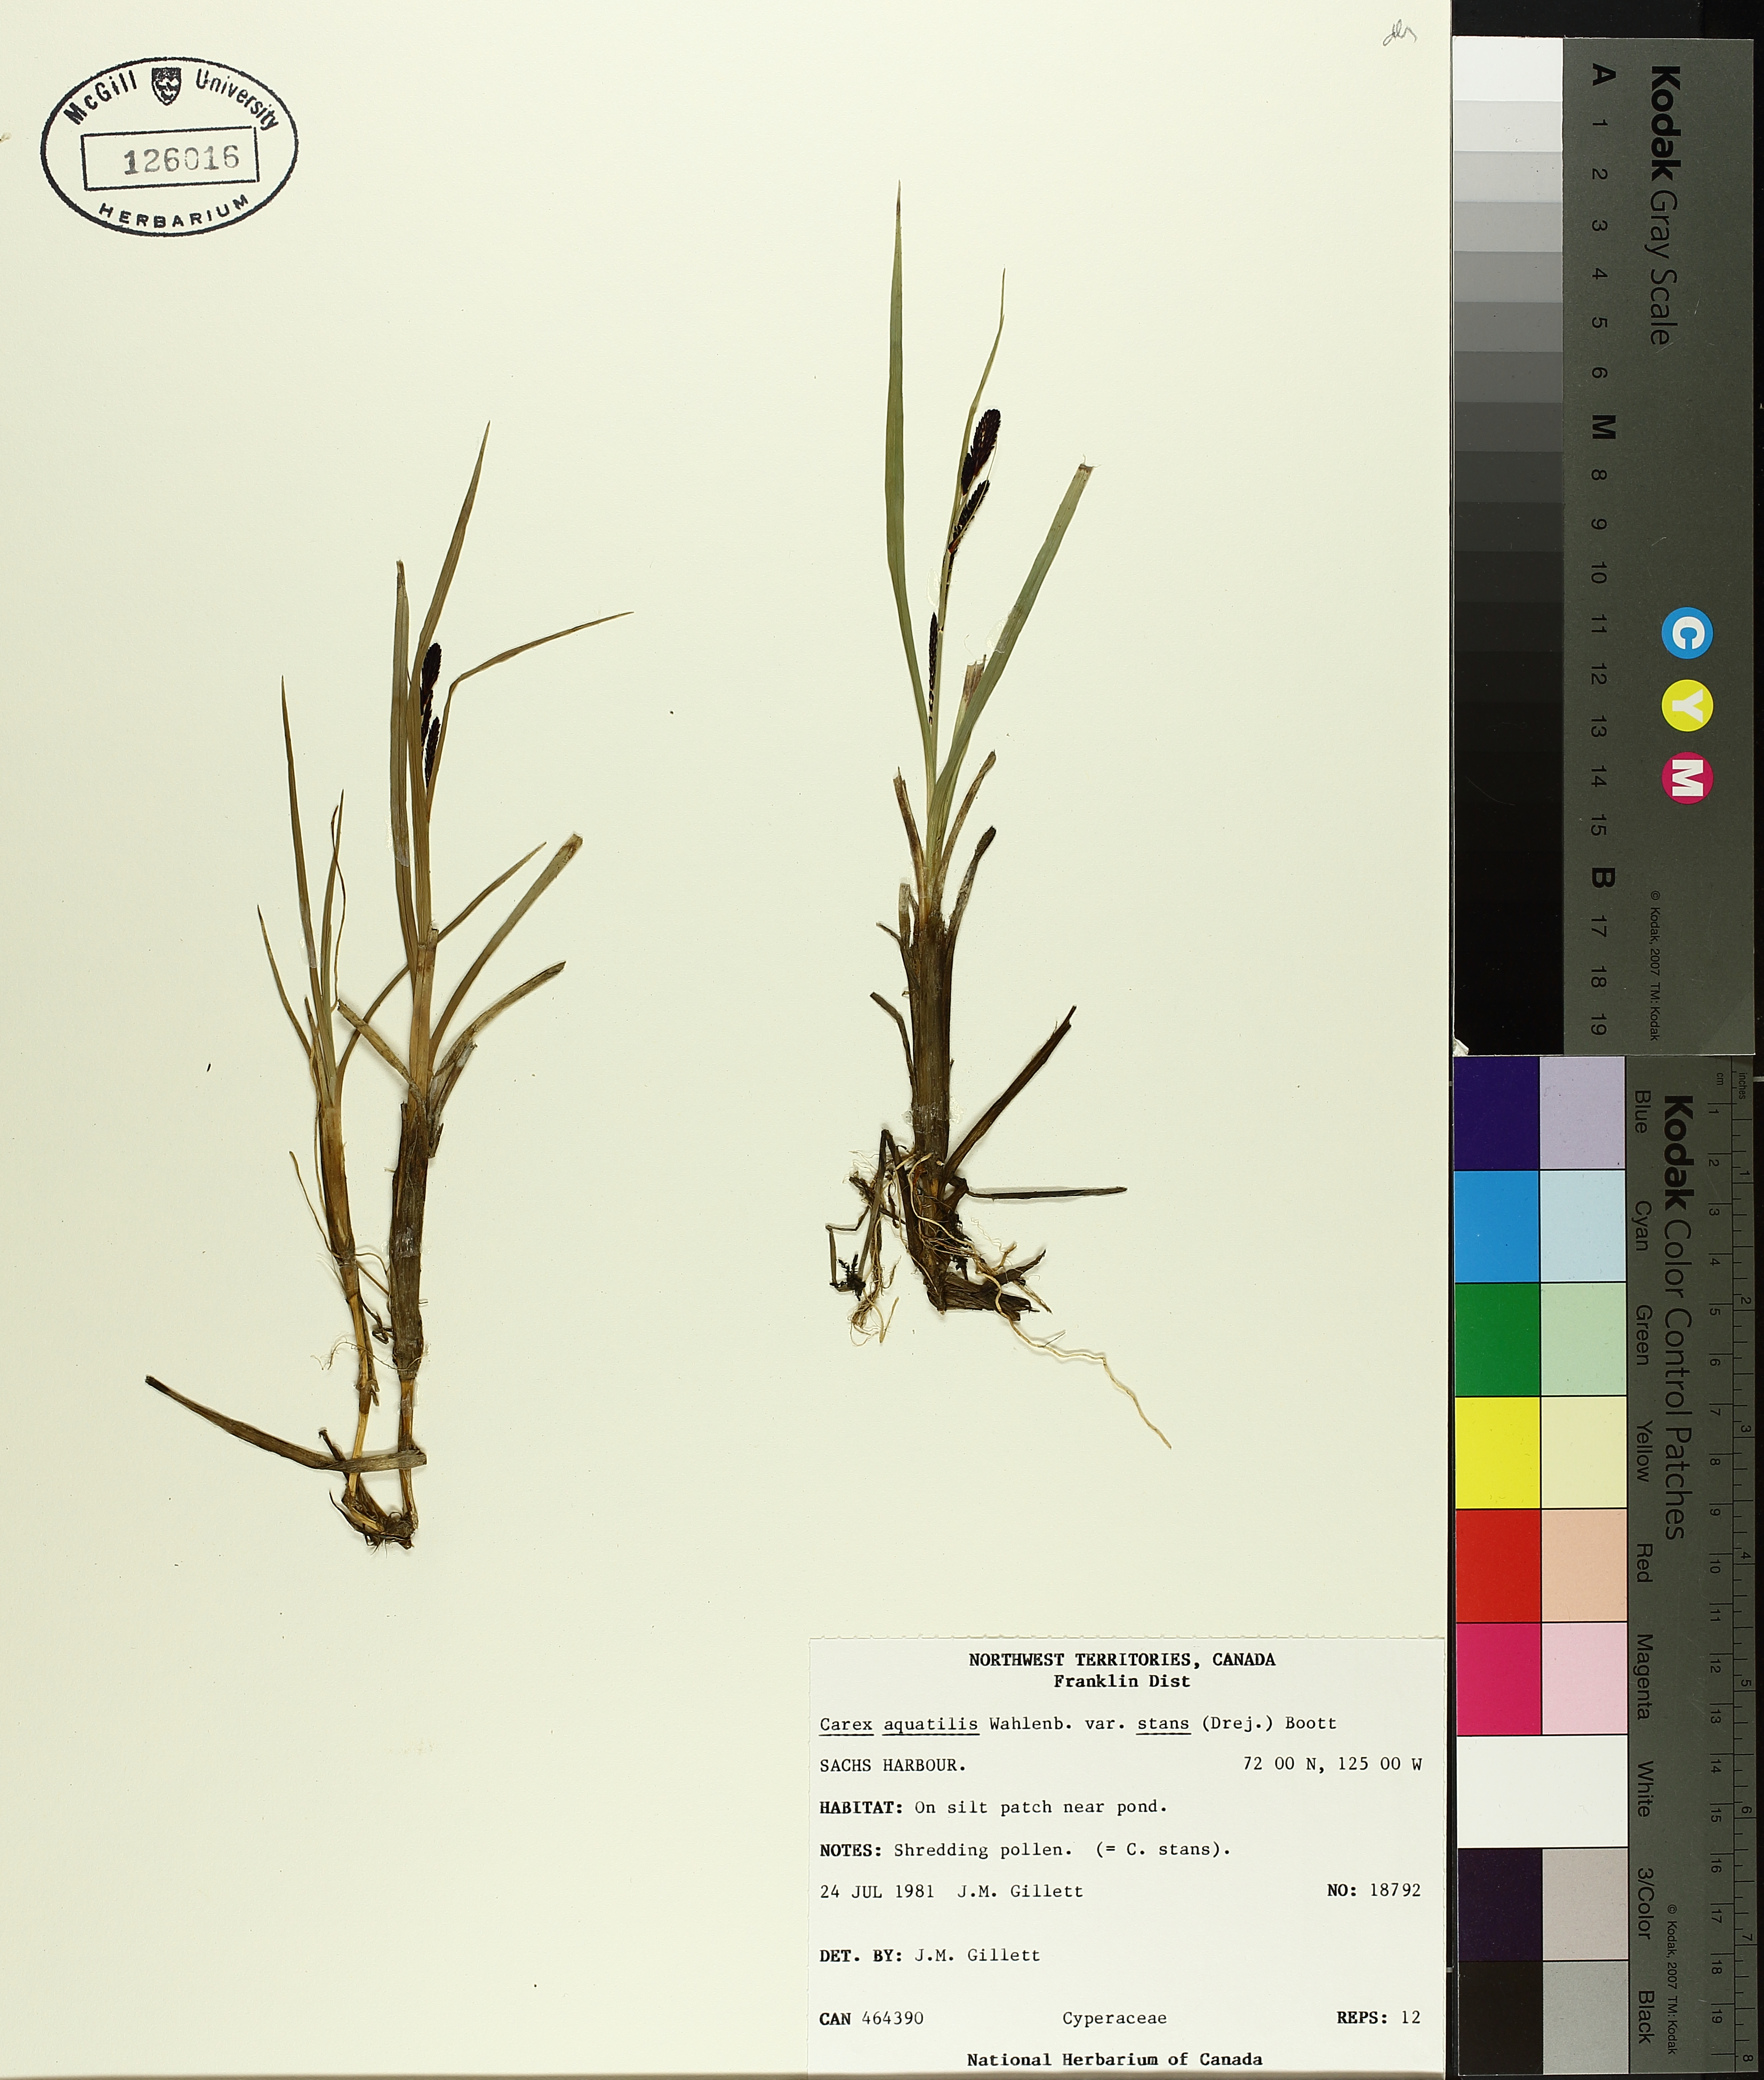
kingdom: Plantae
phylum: Tracheophyta
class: Liliopsida
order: Poales
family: Cyperaceae
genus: Carex
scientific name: Carex aquatilis
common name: Water sedge
